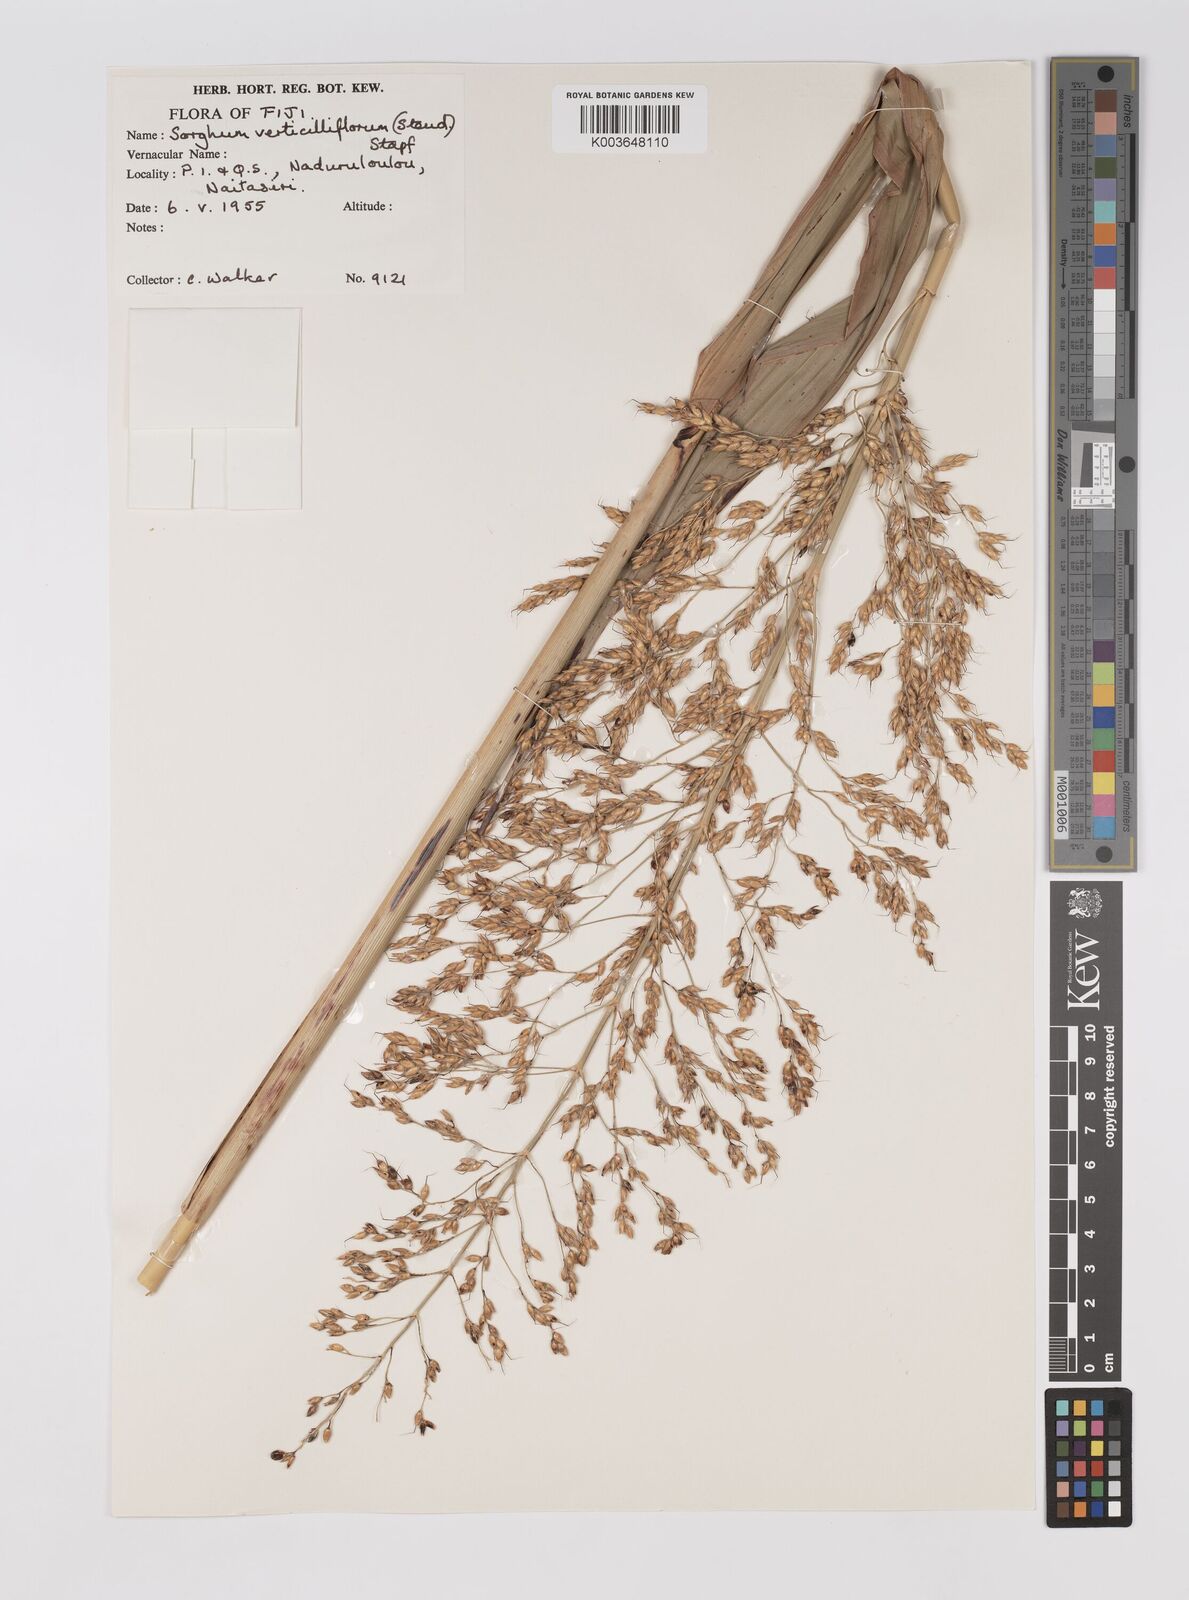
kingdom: Plantae
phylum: Tracheophyta
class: Liliopsida
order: Poales
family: Poaceae
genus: Sorghum
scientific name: Sorghum arundinaceum
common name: Sorghum
